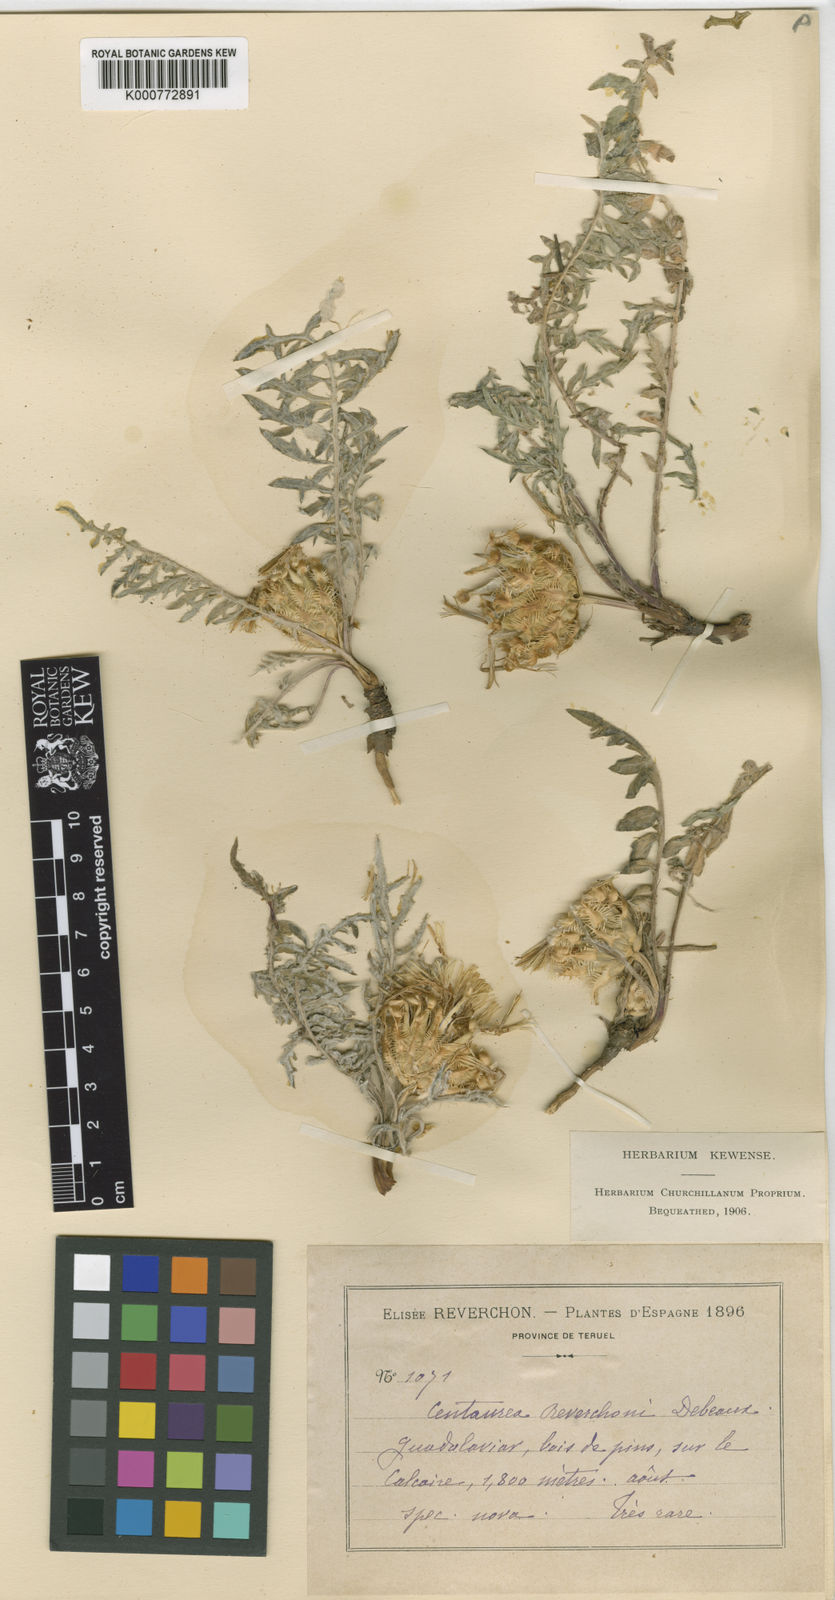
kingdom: Plantae
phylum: Tracheophyta
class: Magnoliopsida
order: Asterales
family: Asteraceae
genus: Centaurea
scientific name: Centaurea toletana
